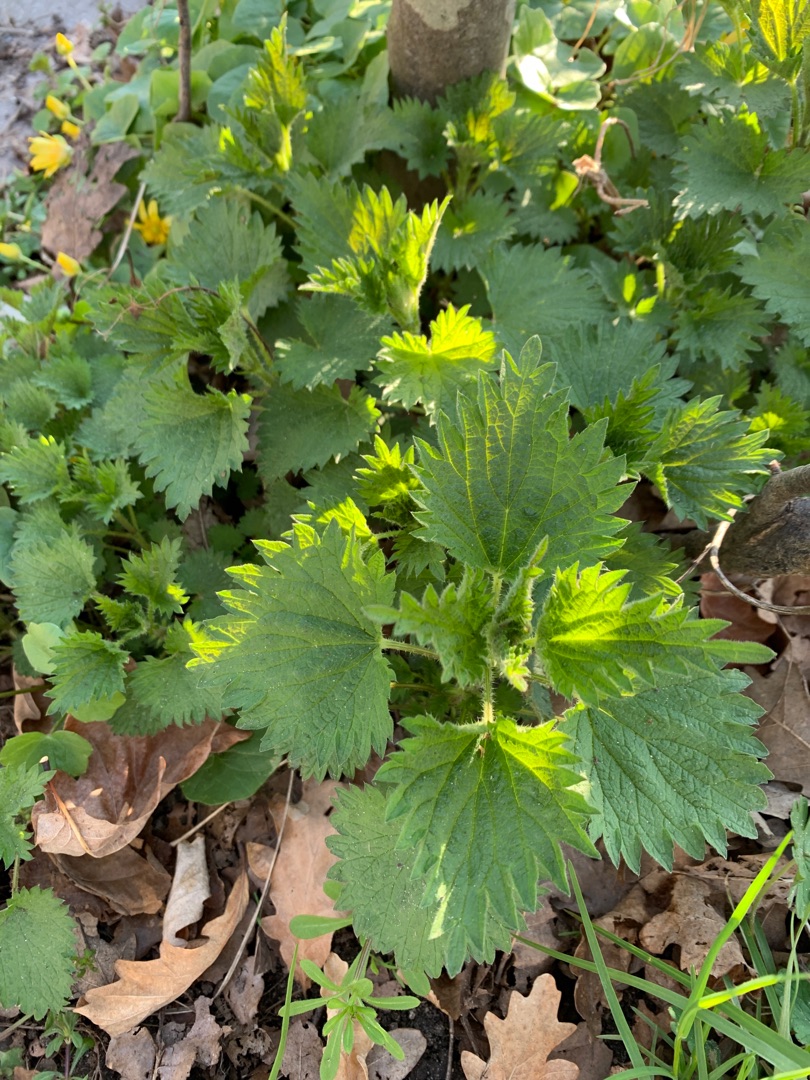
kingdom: Plantae
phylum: Tracheophyta
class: Magnoliopsida
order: Rosales
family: Urticaceae
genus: Urtica
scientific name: Urtica dioica
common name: Stor nælde
